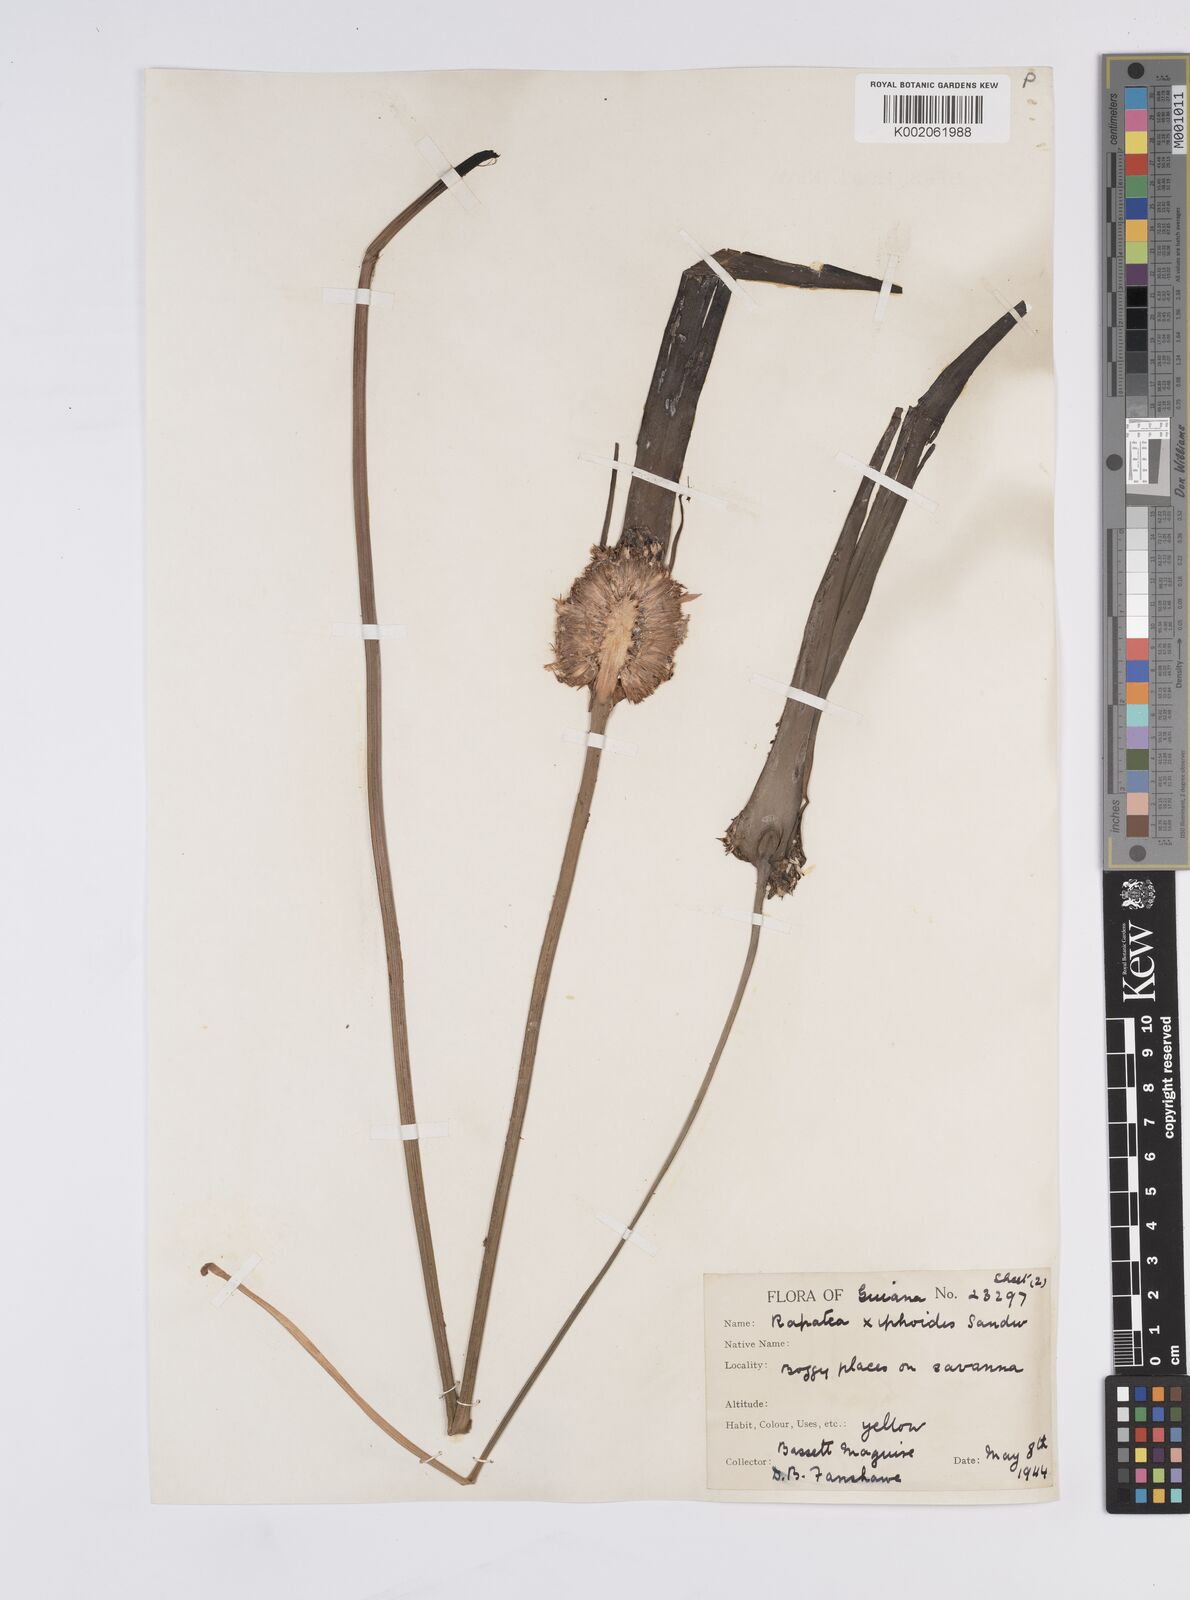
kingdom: Plantae
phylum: Tracheophyta
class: Liliopsida
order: Poales
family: Rapateaceae
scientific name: Rapateaceae
